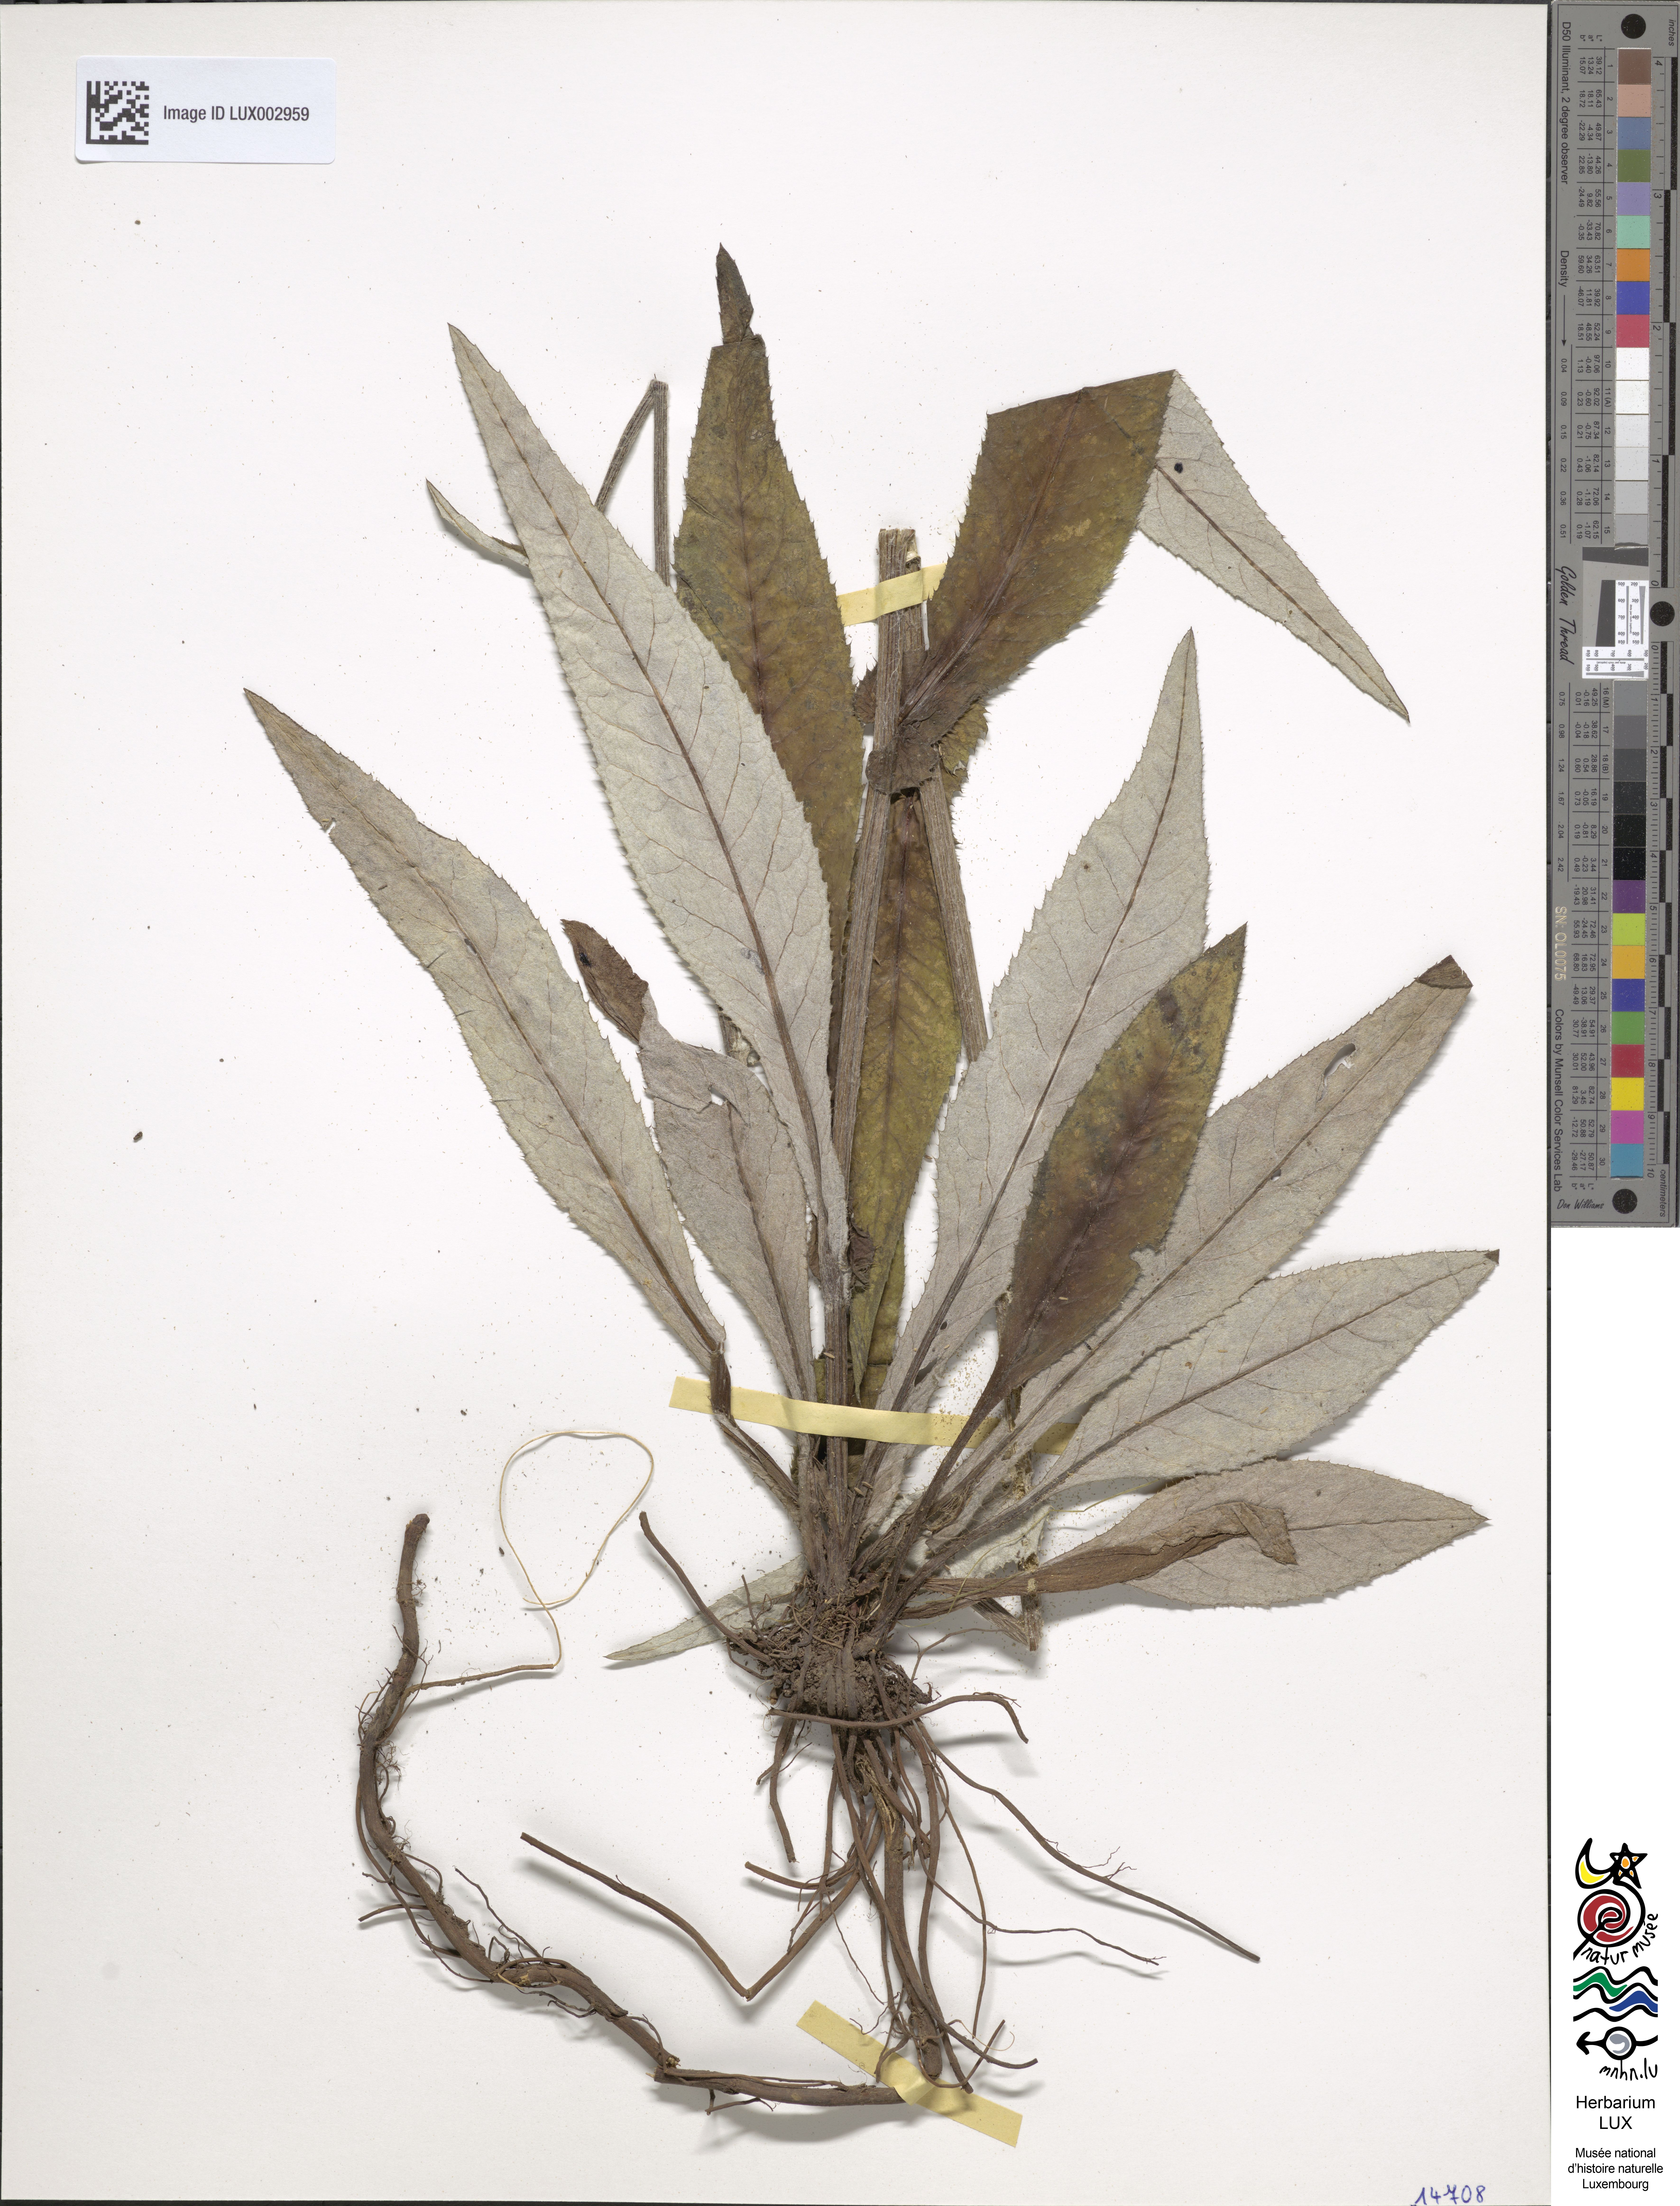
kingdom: Plantae
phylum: Tracheophyta
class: Magnoliopsida
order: Asterales
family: Asteraceae
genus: Cirsium
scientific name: Cirsium heterophyllum
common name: Melancholy thistle
